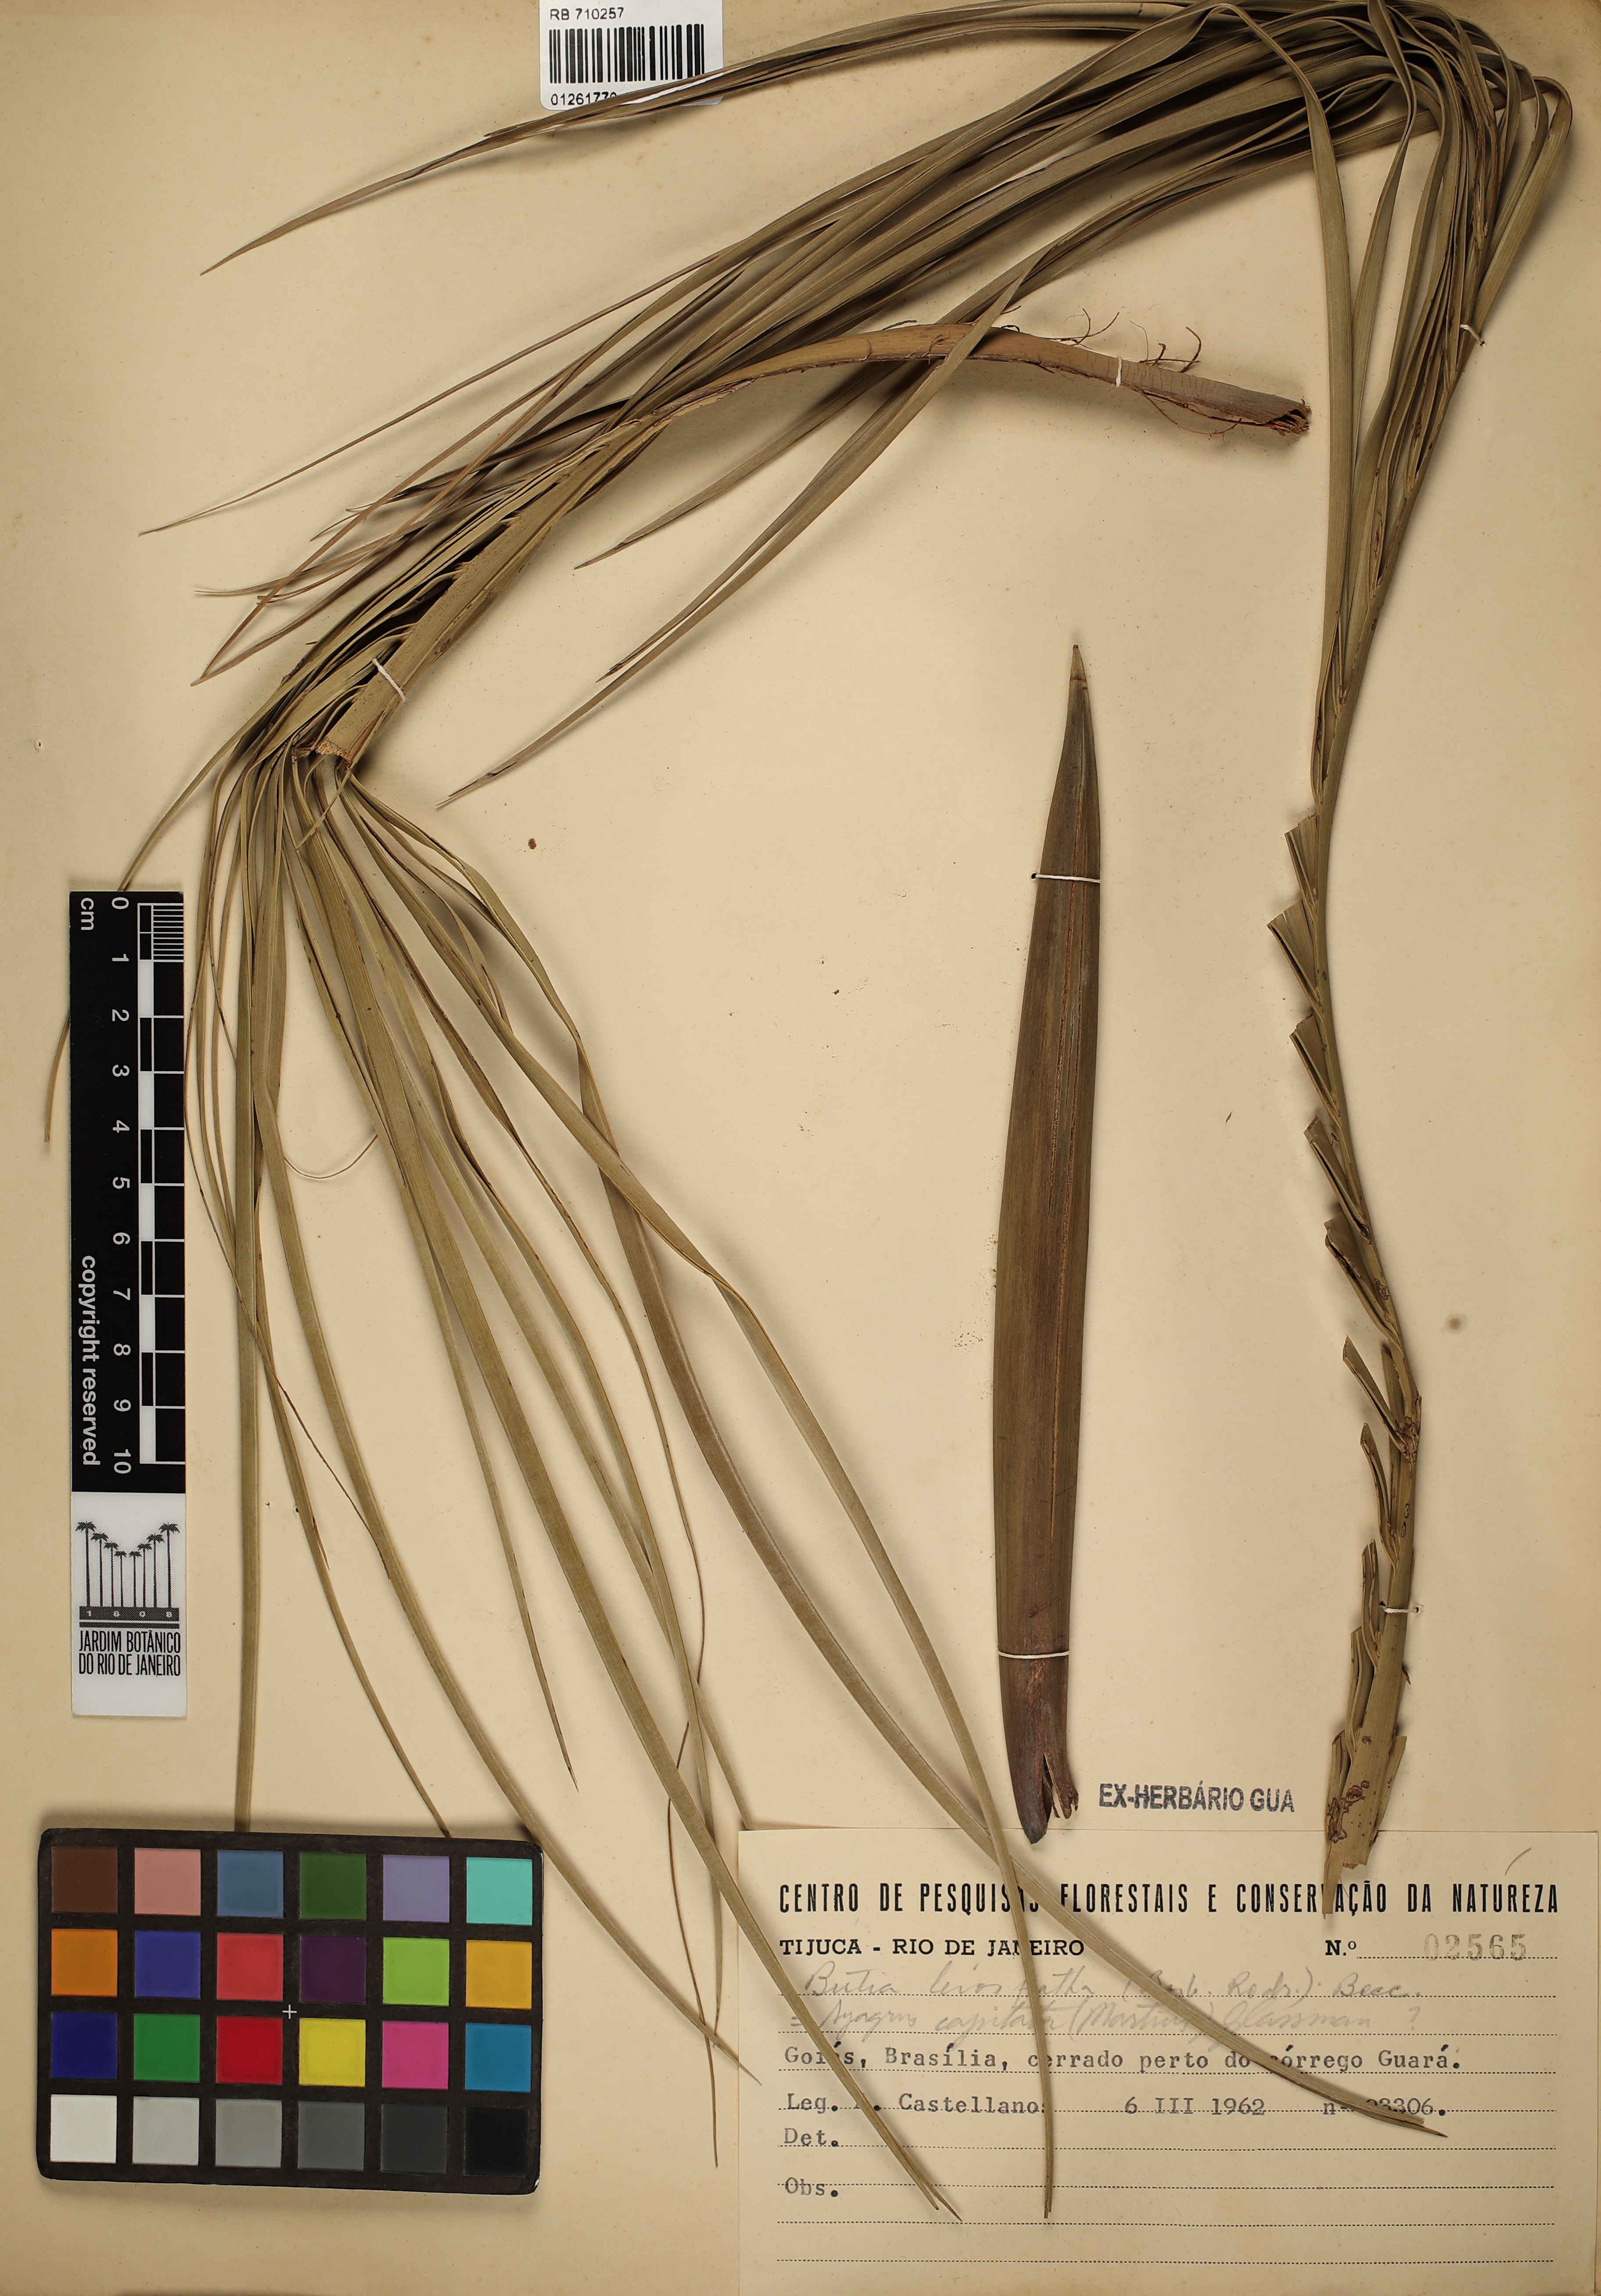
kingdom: Plantae
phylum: Tracheophyta
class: Liliopsida
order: Arecales
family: Arecaceae
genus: Butia
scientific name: Butia capitata
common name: South american jelly palm
